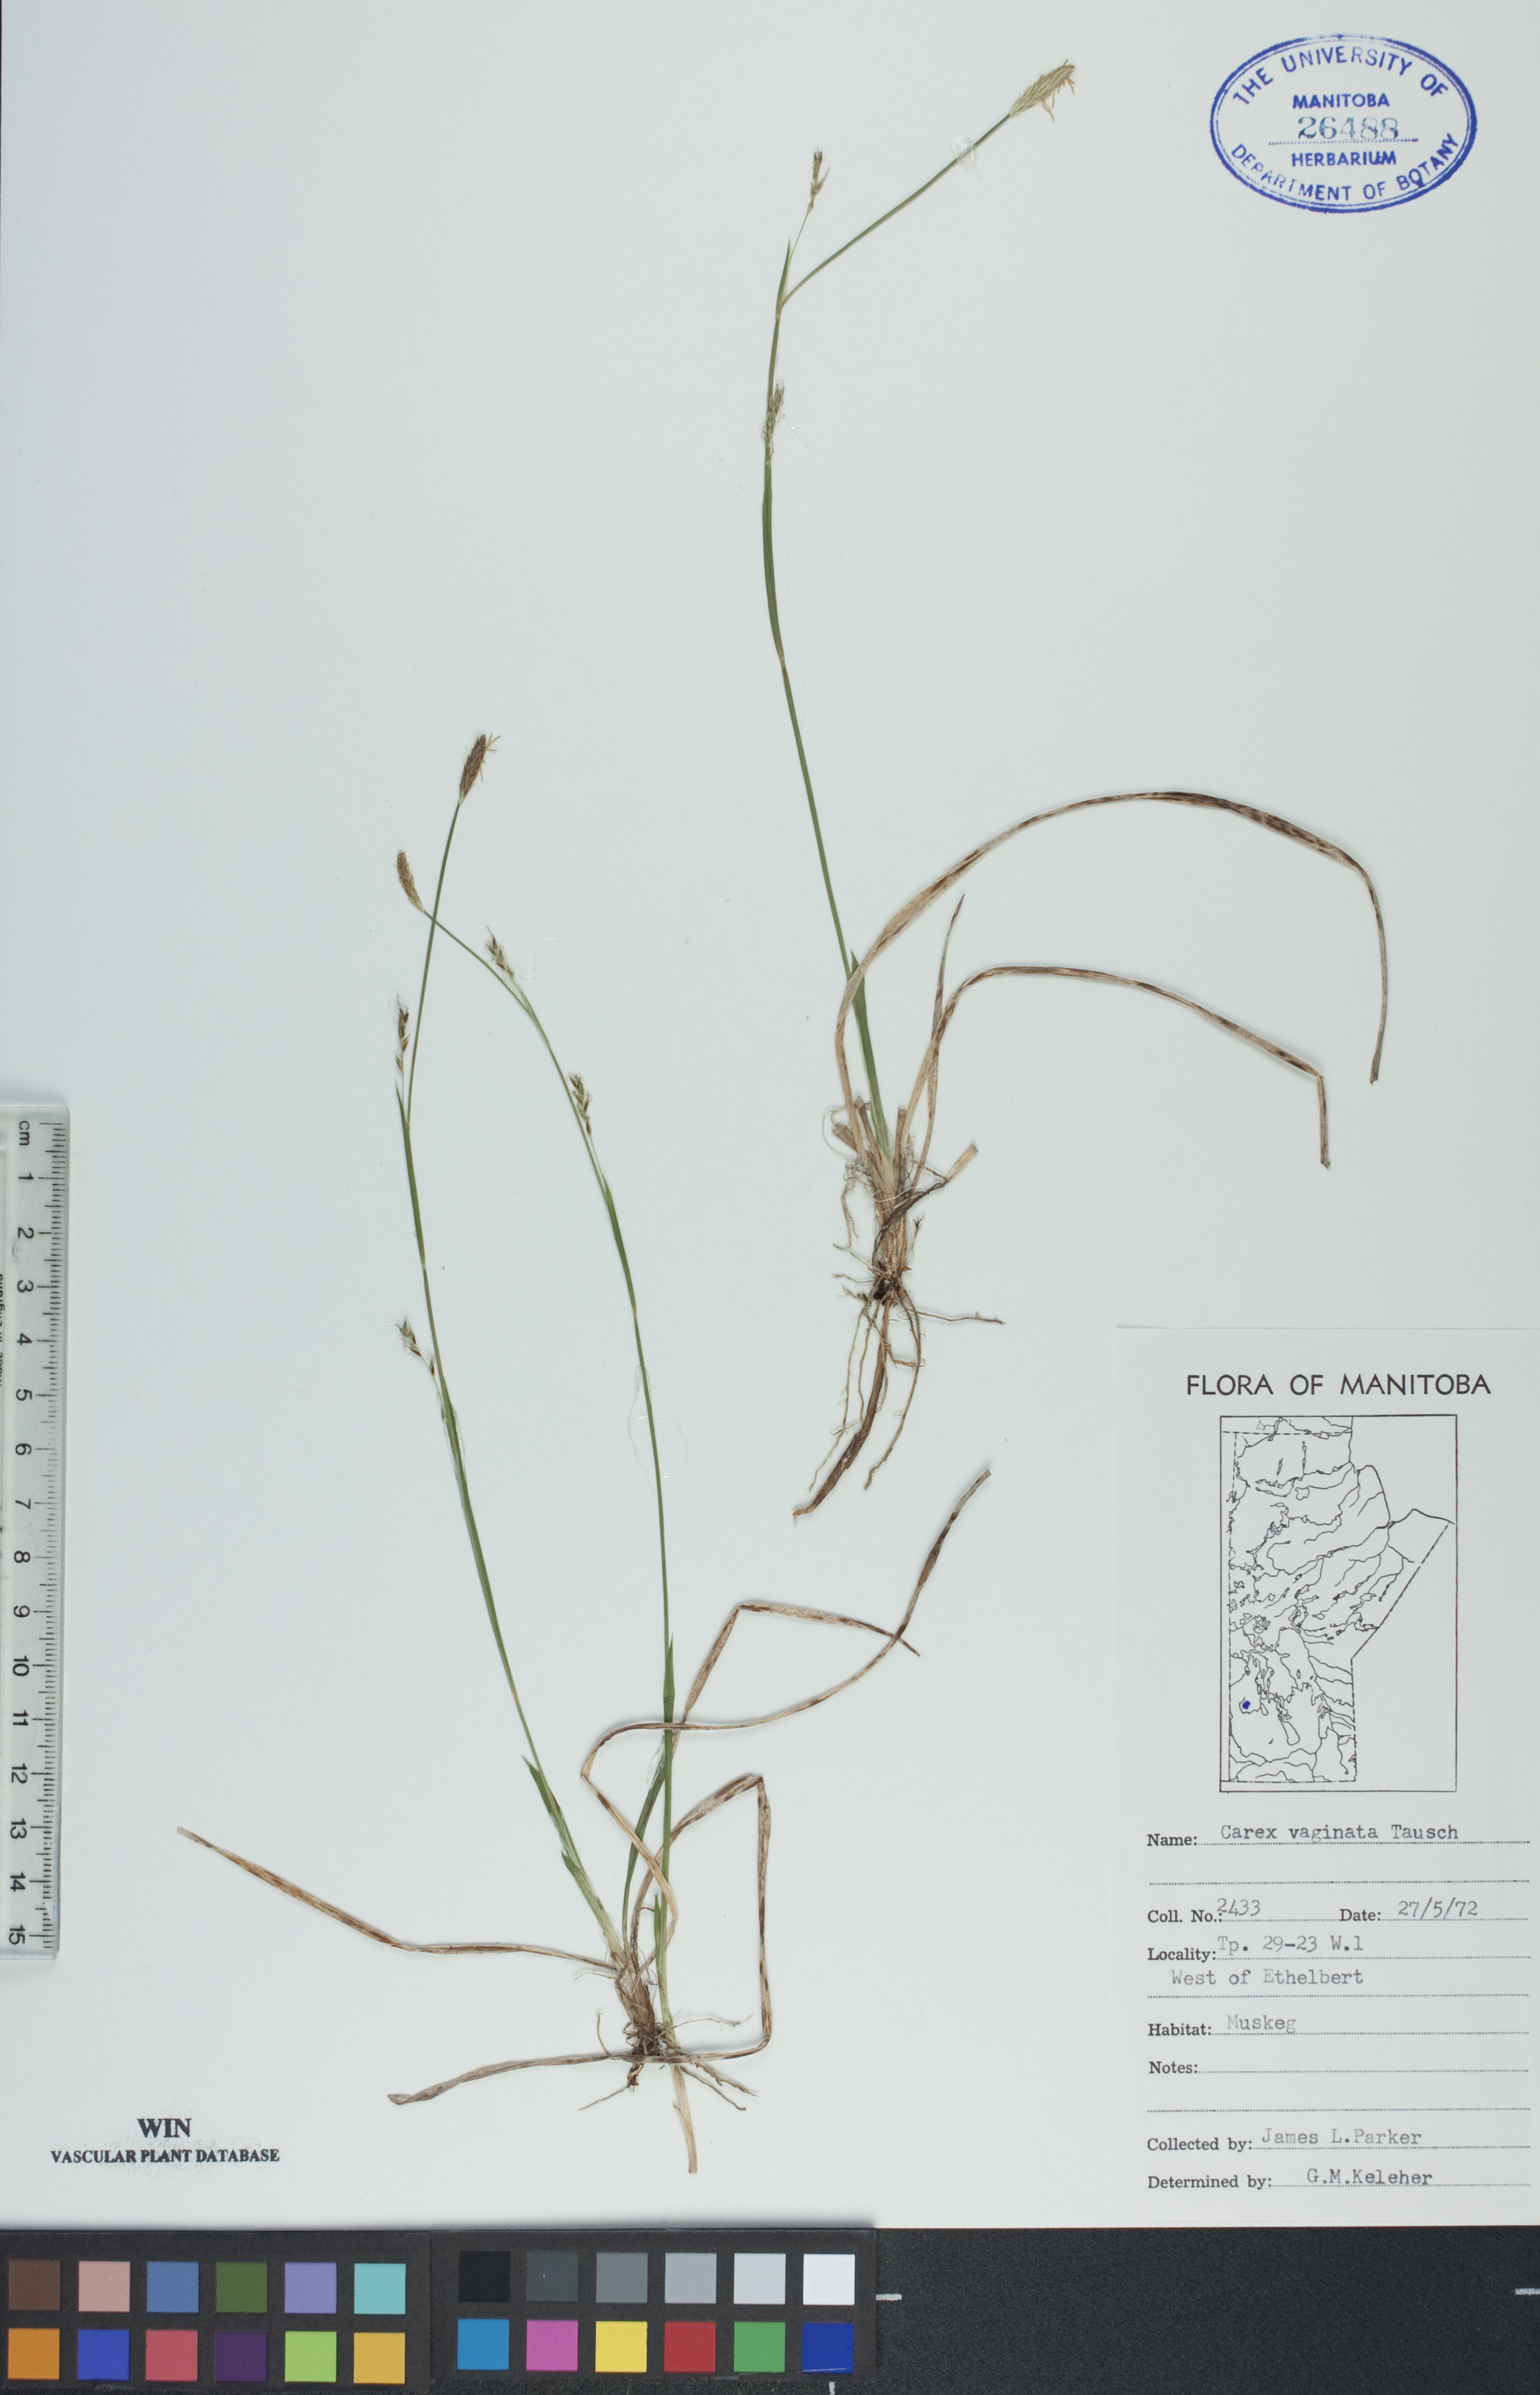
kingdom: Plantae
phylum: Tracheophyta
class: Liliopsida
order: Poales
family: Cyperaceae
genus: Carex
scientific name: Carex vaginata
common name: Sheathed sedge
